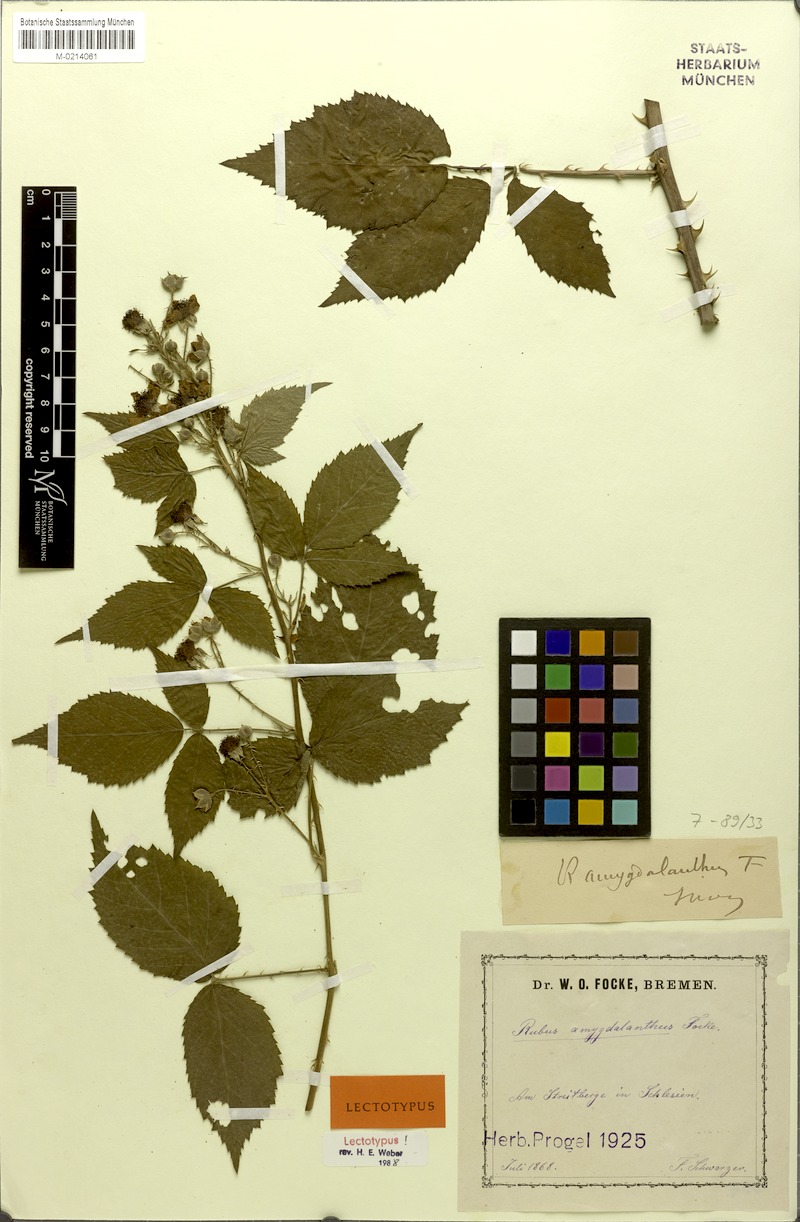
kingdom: Plantae
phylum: Tracheophyta
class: Magnoliopsida
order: Rosales
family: Rosaceae
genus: Rubus
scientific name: Rubus amygdalanthus
